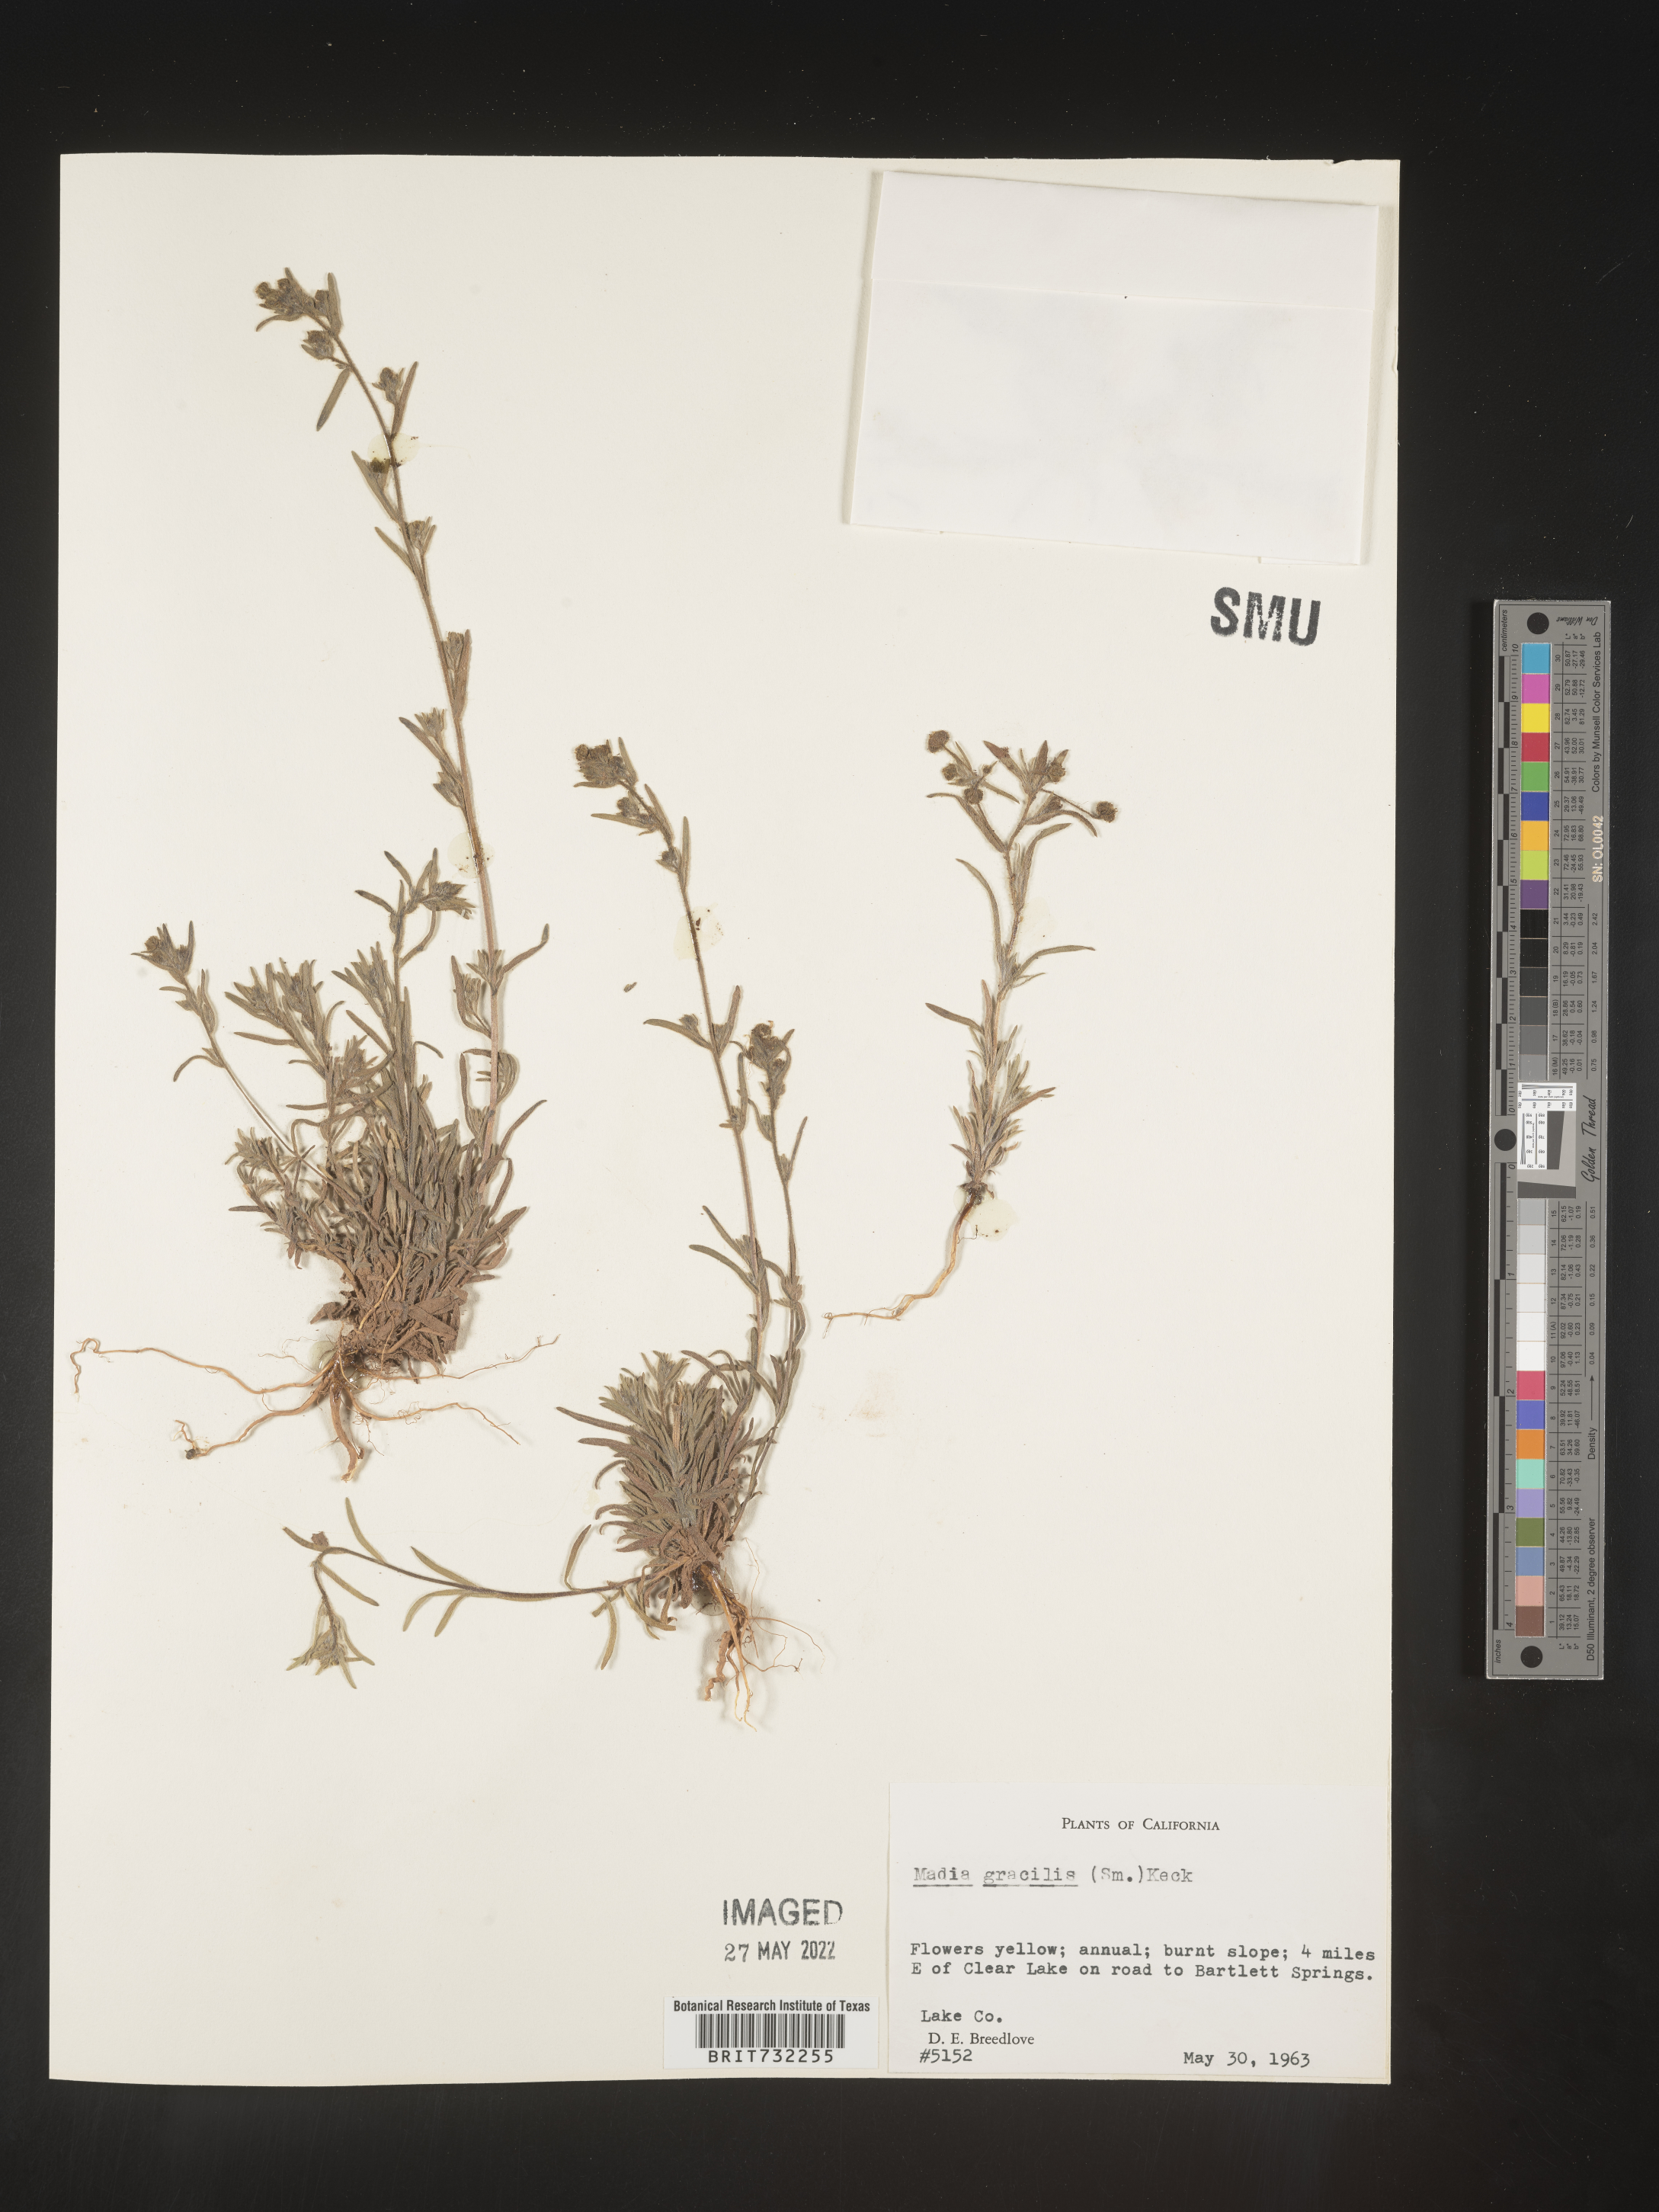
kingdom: Plantae
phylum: Tracheophyta
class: Magnoliopsida
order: Asterales
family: Asteraceae
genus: Madia
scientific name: Madia gracilis
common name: Grassy tarweed
